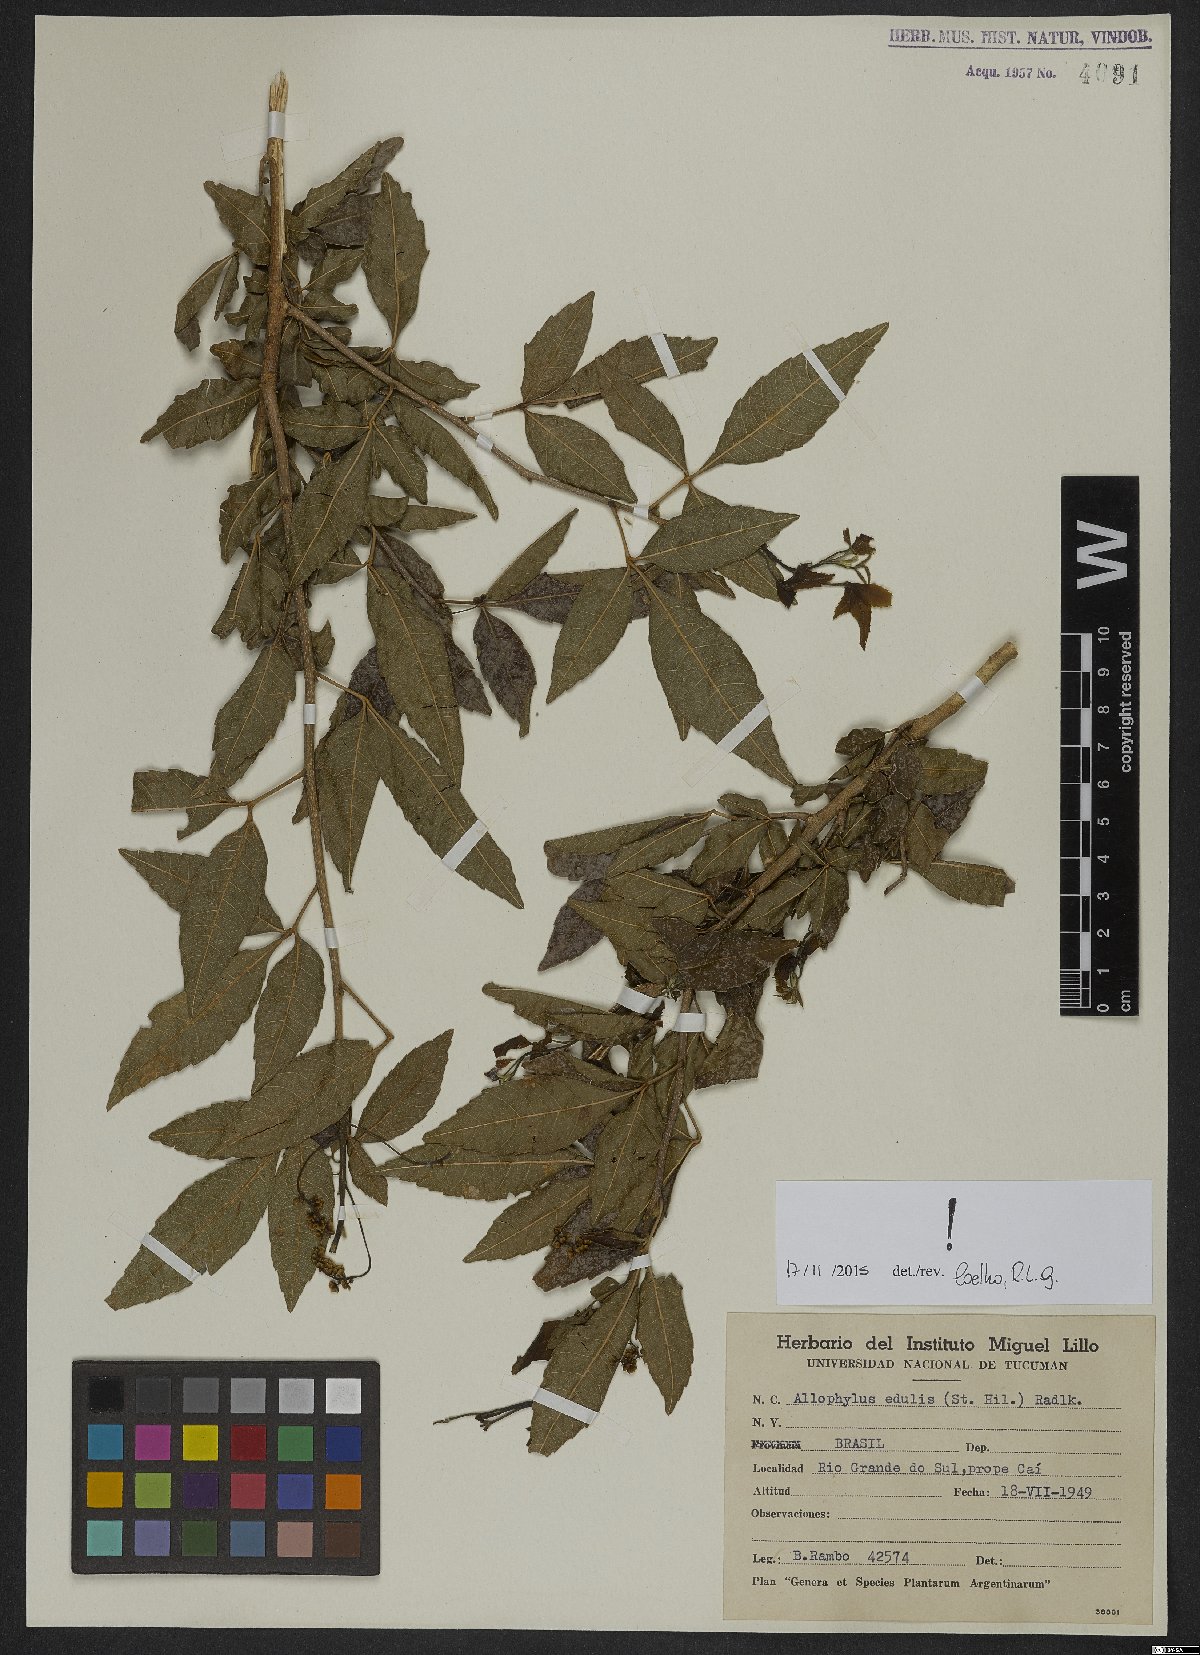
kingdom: Plantae
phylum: Tracheophyta
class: Magnoliopsida
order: Sapindales
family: Sapindaceae
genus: Allophylus
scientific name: Allophylus edulis
